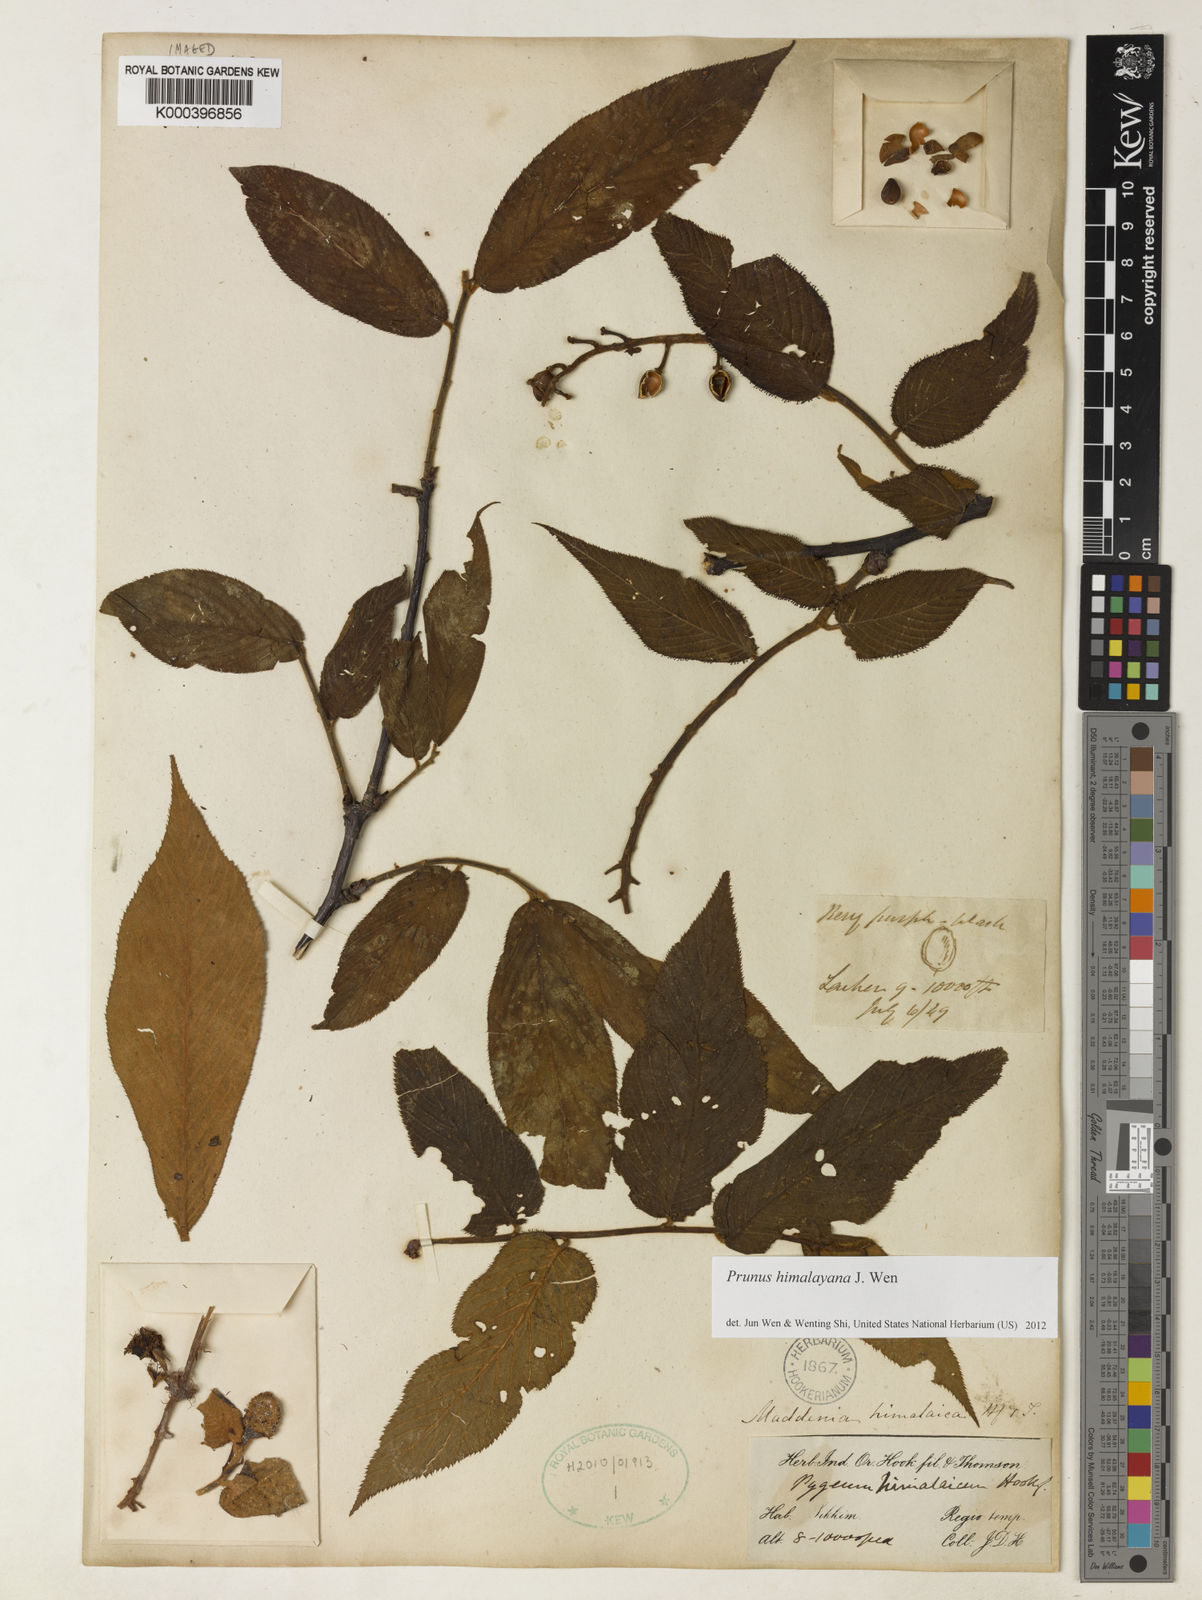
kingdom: Plantae
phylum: Tracheophyta
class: Magnoliopsida
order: Rosales
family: Rosaceae
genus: Prunus
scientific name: Prunus himalayana
